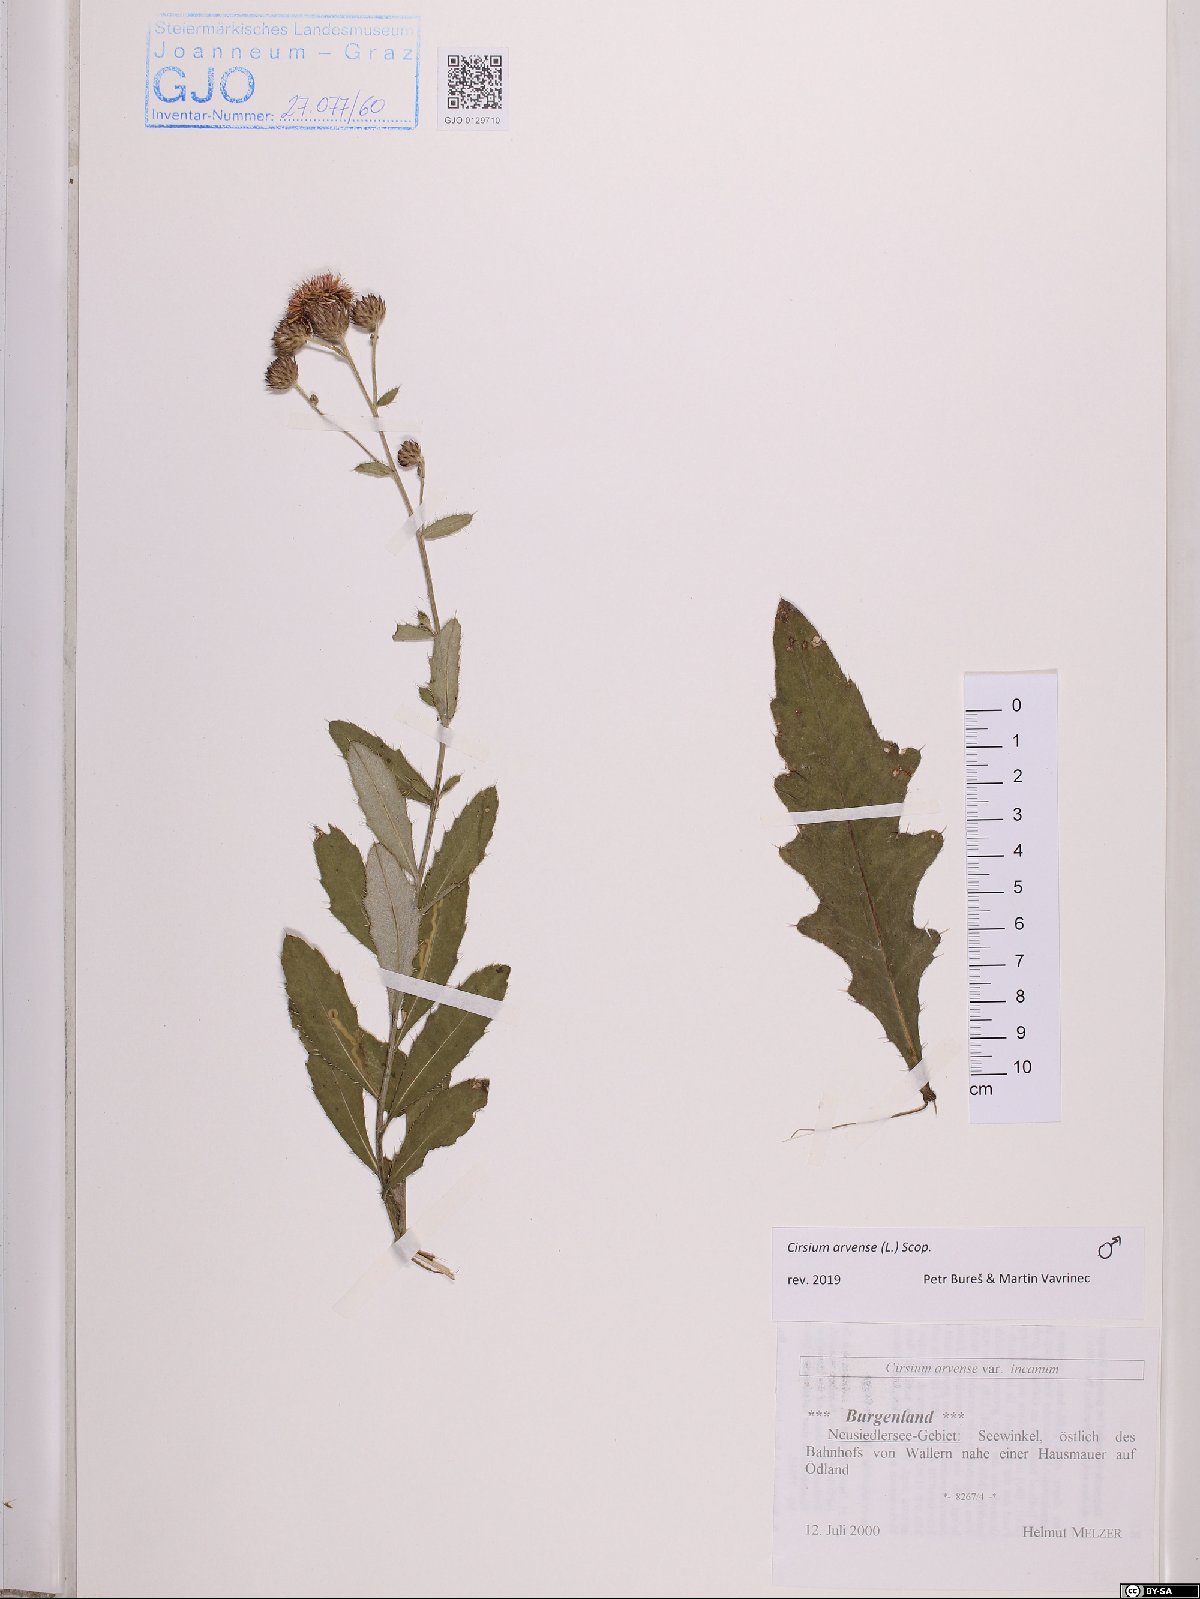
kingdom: Plantae
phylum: Tracheophyta
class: Magnoliopsida
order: Asterales
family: Asteraceae
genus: Cirsium
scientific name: Cirsium arvense
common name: Creeping thistle
